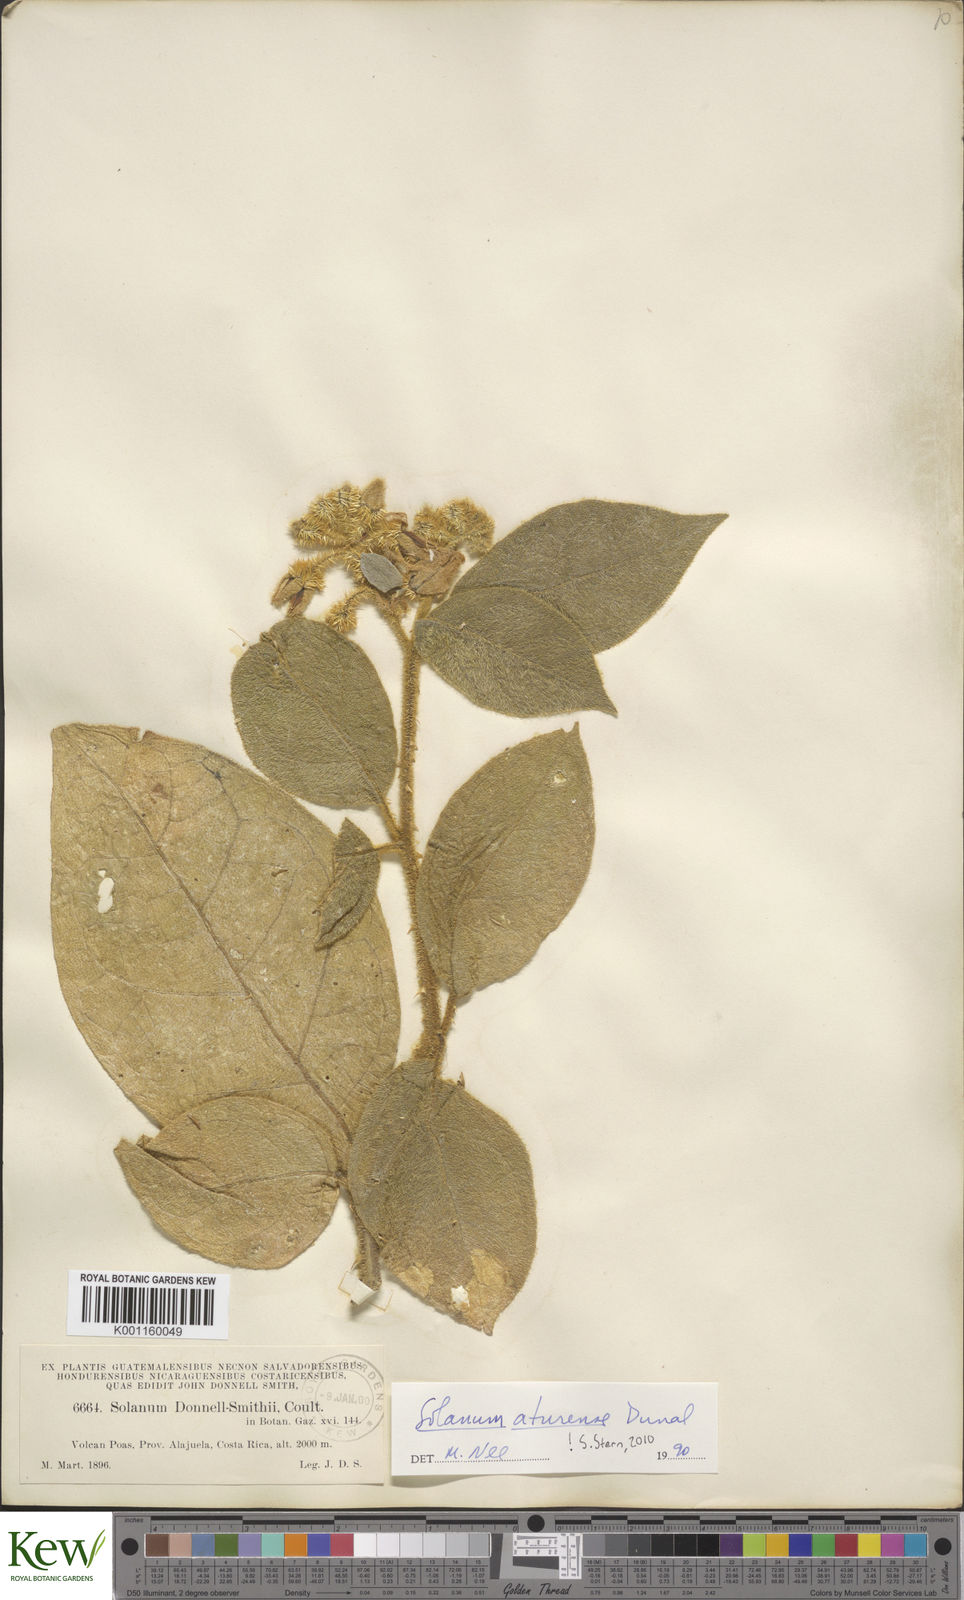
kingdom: Plantae
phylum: Tracheophyta
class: Magnoliopsida
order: Solanales
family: Solanaceae
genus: Solanum
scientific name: Solanum aturense
